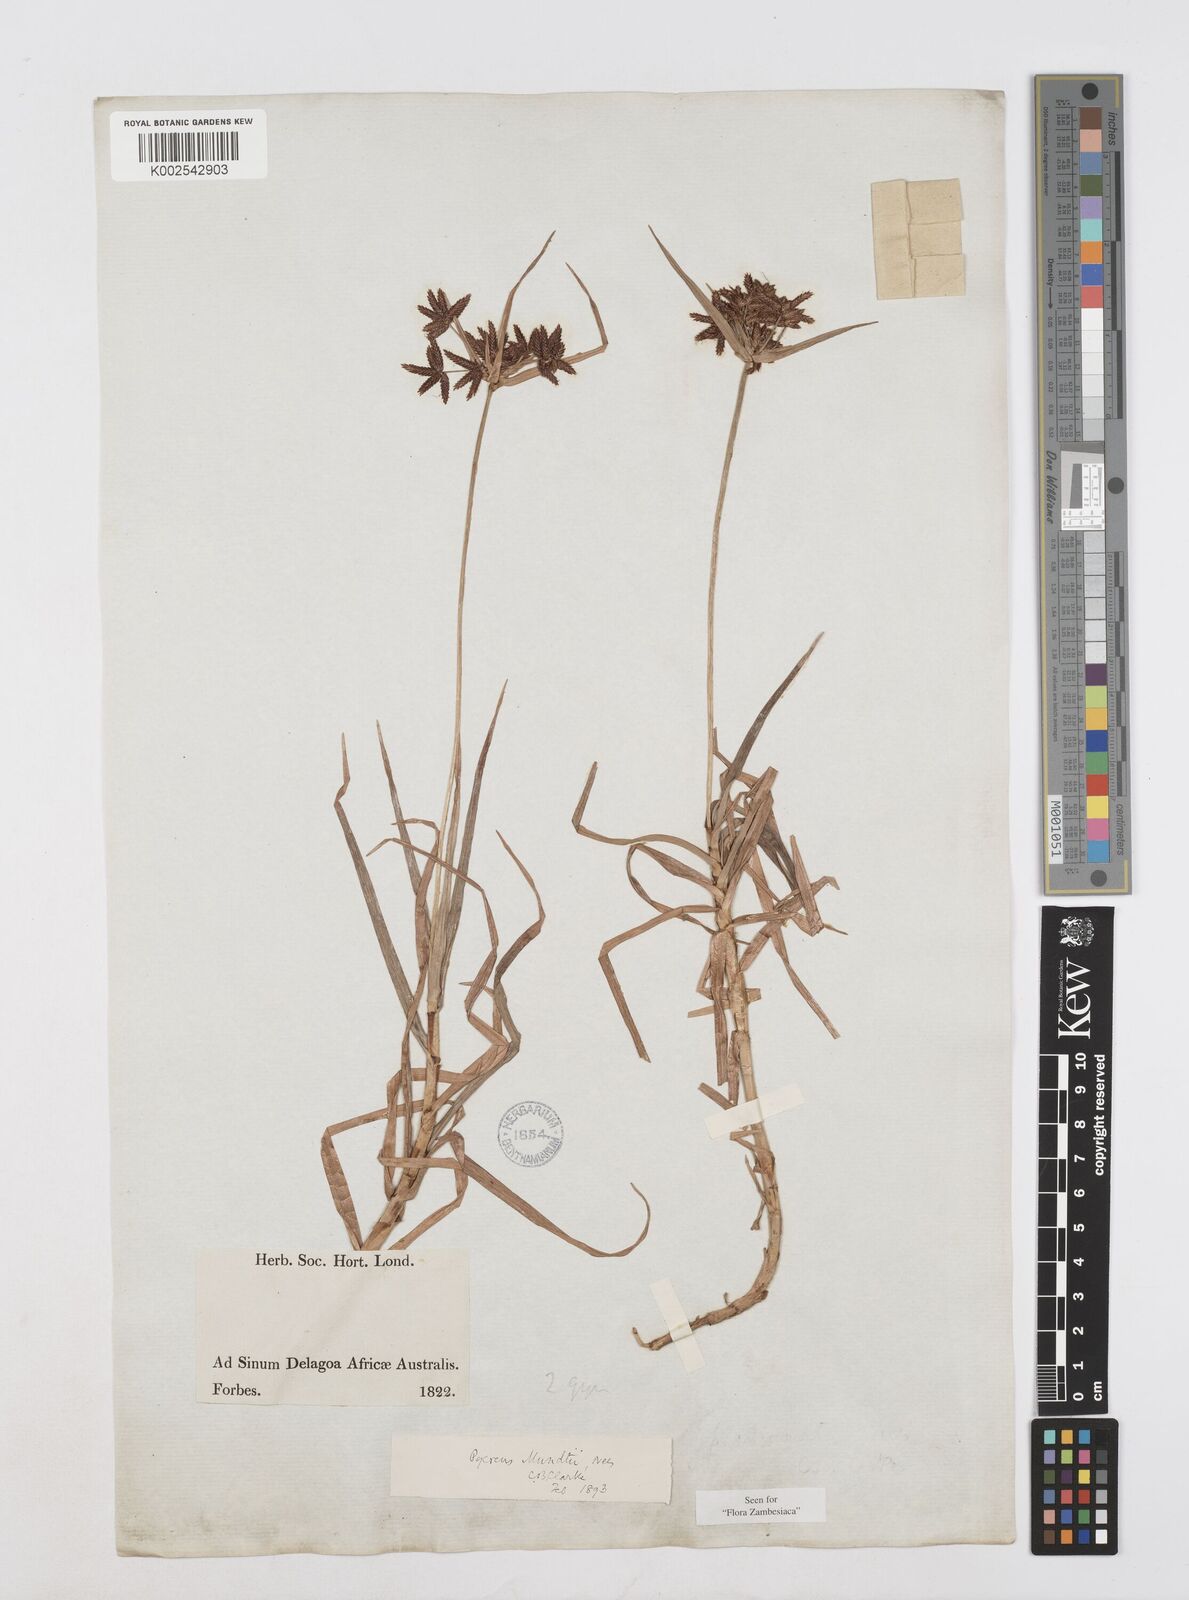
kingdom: Plantae
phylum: Tracheophyta
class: Liliopsida
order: Poales
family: Cyperaceae
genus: Cyperus
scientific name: Cyperus mundii
